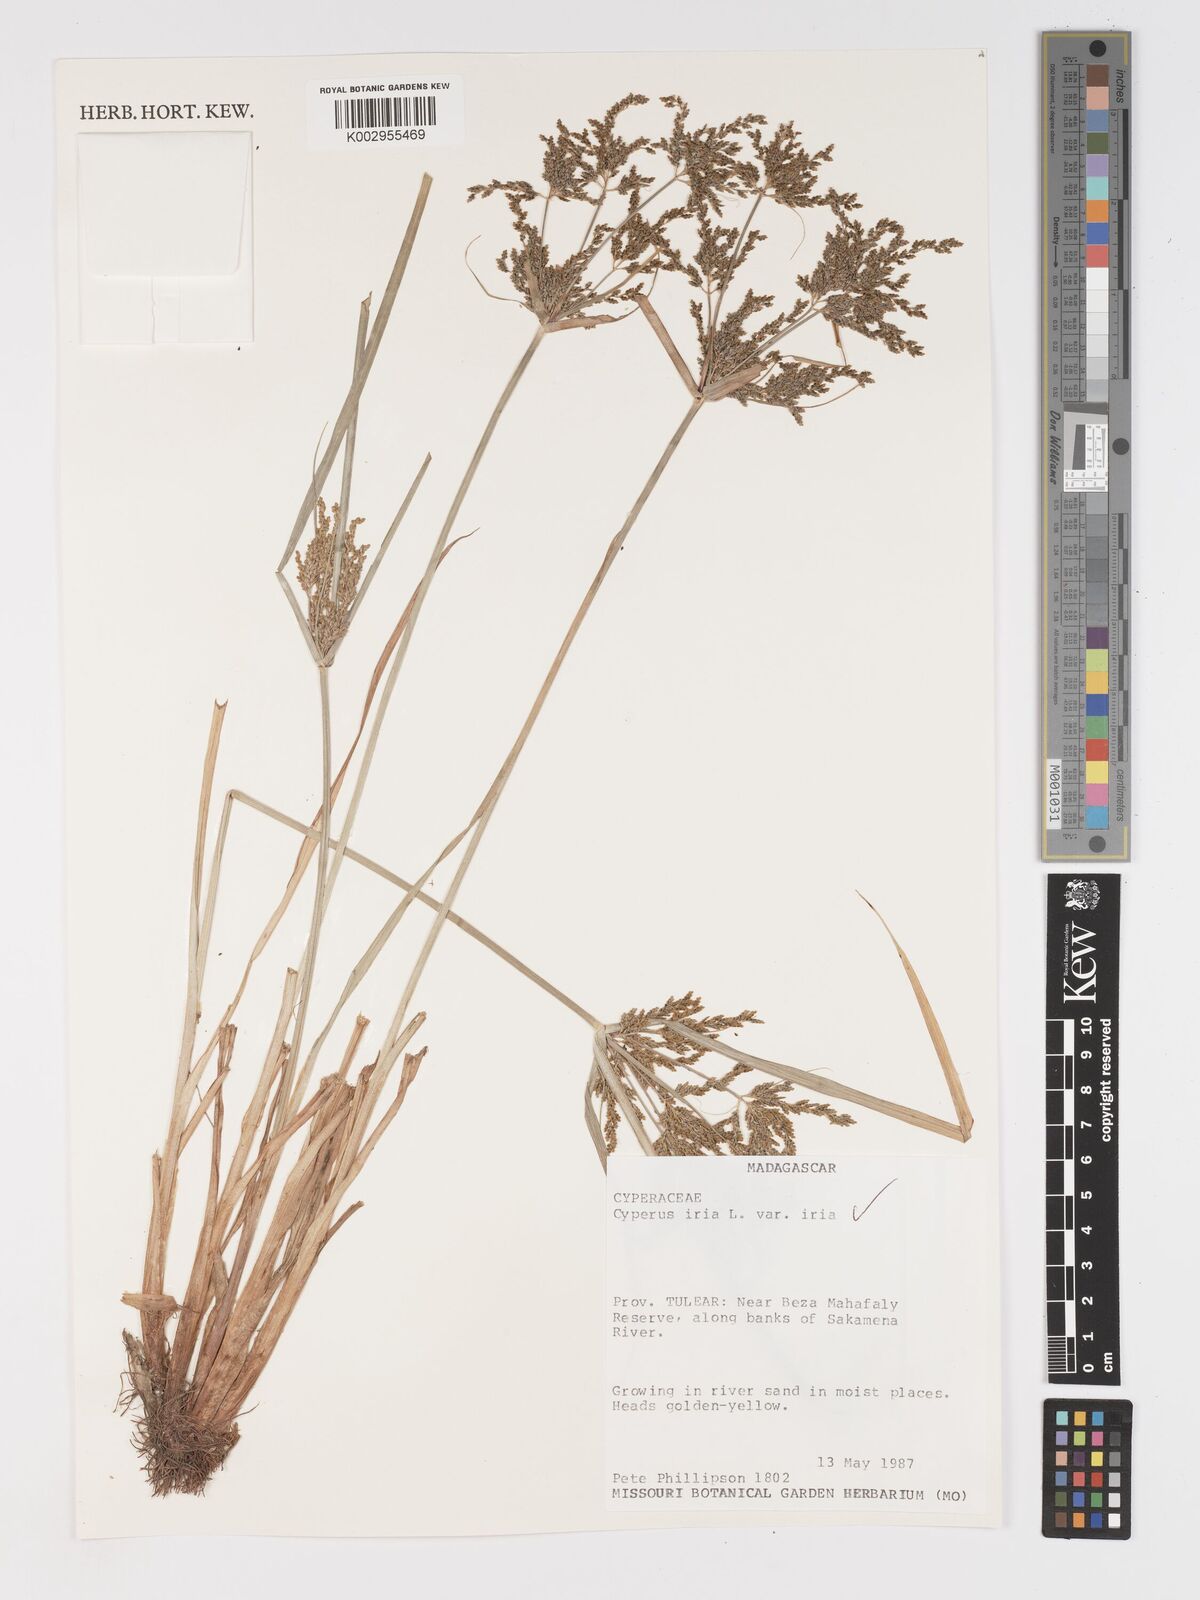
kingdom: Plantae
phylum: Tracheophyta
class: Liliopsida
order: Poales
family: Cyperaceae
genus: Cyperus
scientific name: Cyperus iria
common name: Ricefield flatsedge
